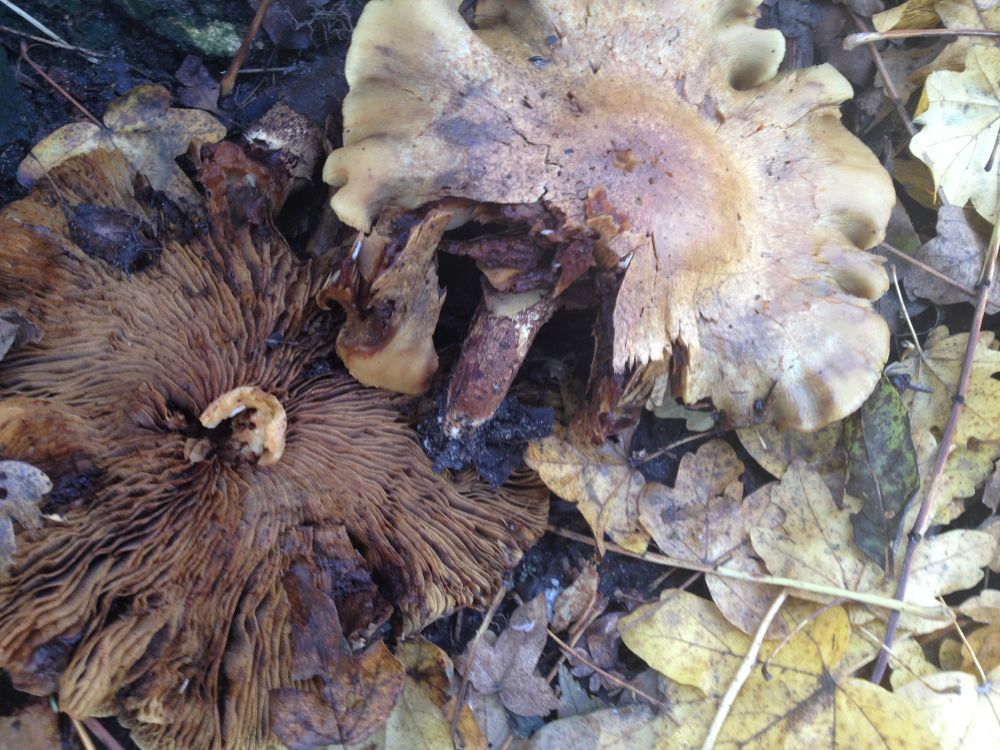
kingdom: Fungi
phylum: Basidiomycota
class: Agaricomycetes
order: Agaricales
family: Strophariaceae
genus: Pholiota
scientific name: Pholiota squarrosa
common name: krumskællet skælhat
